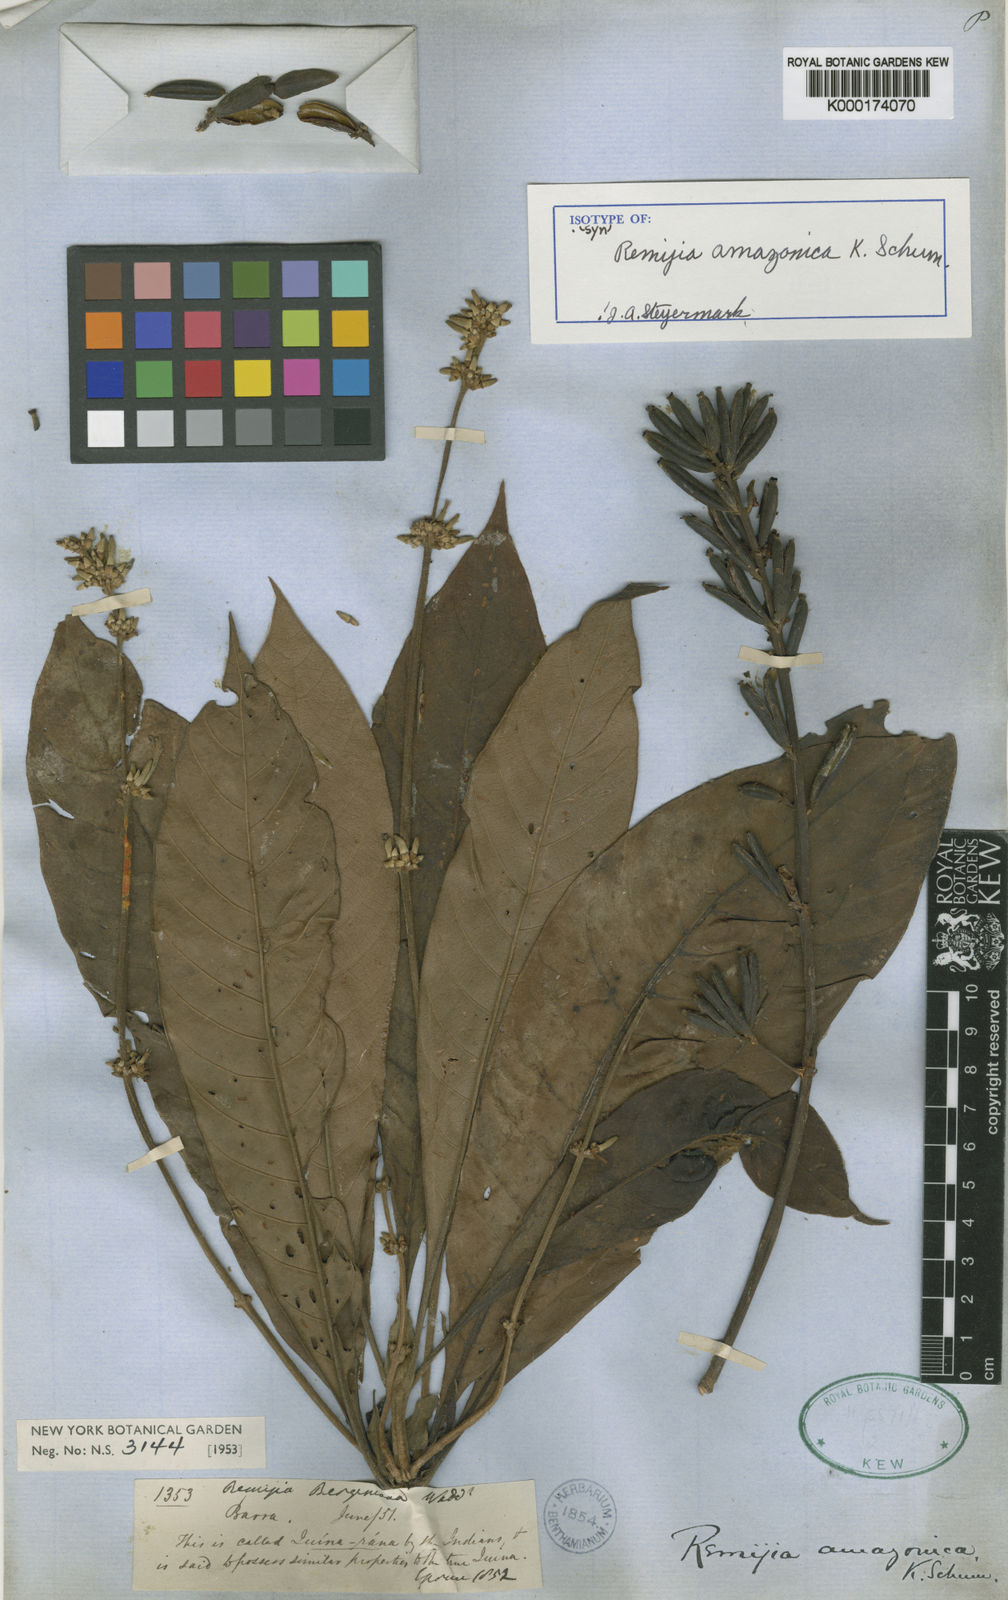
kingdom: Plantae
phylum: Tracheophyta
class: Magnoliopsida
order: Gentianales
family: Rubiaceae
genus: Remijia
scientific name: Remijia amazonica
